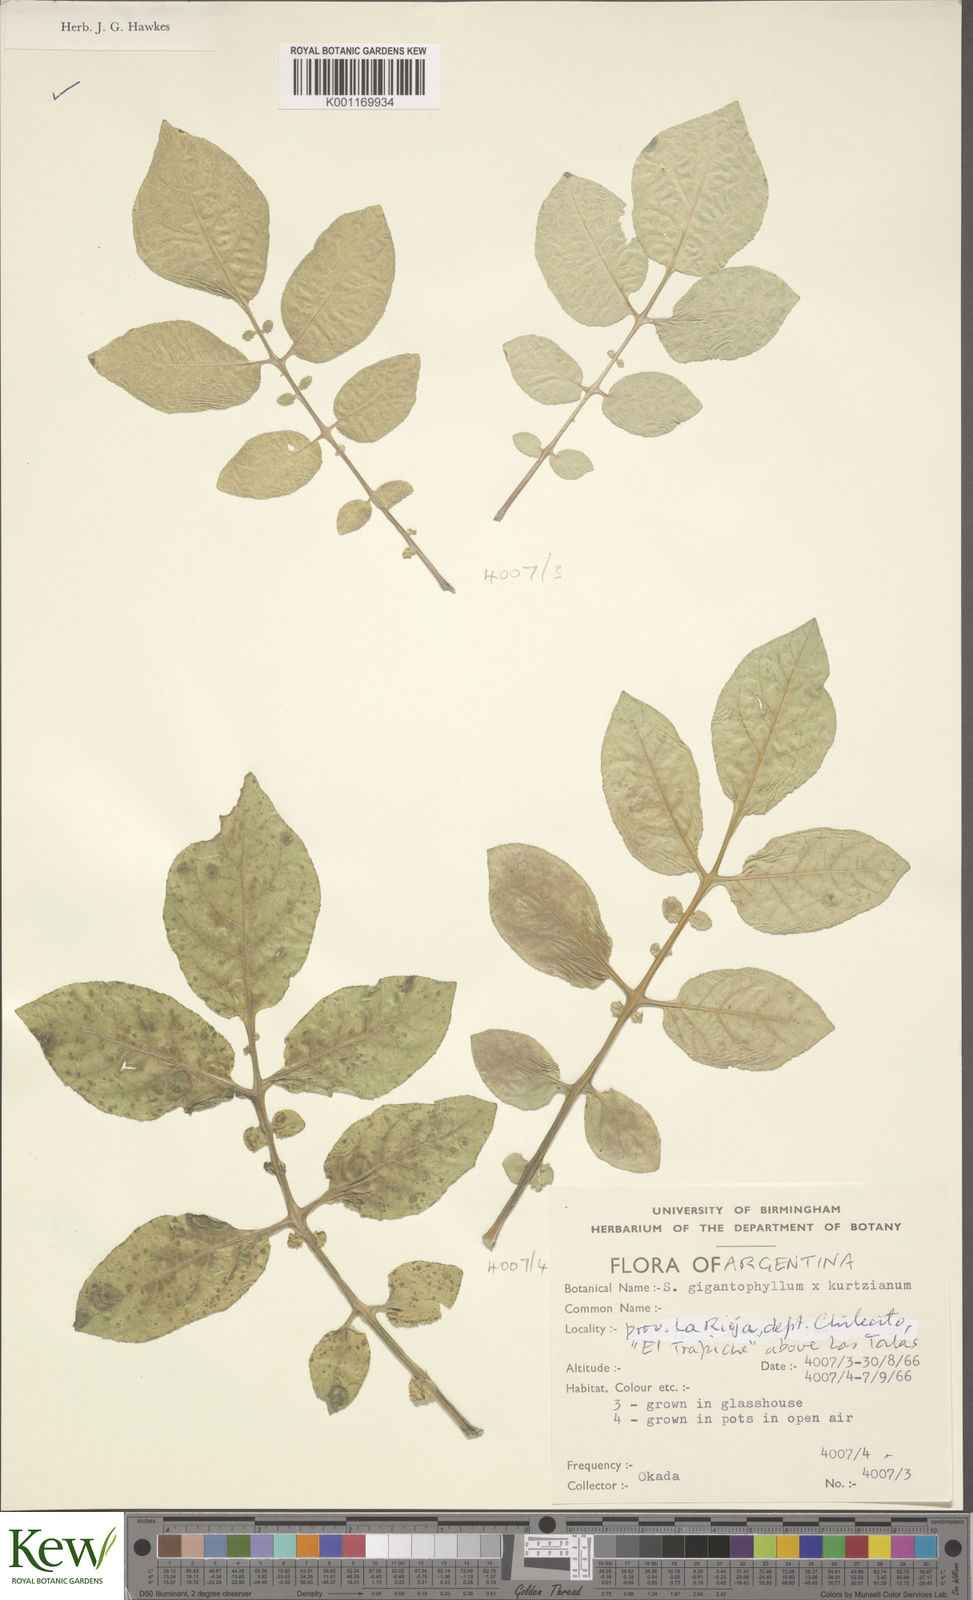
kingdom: Plantae
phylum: Tracheophyta
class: Magnoliopsida
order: Solanales
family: Solanaceae
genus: Solanum
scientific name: Solanum rechei
